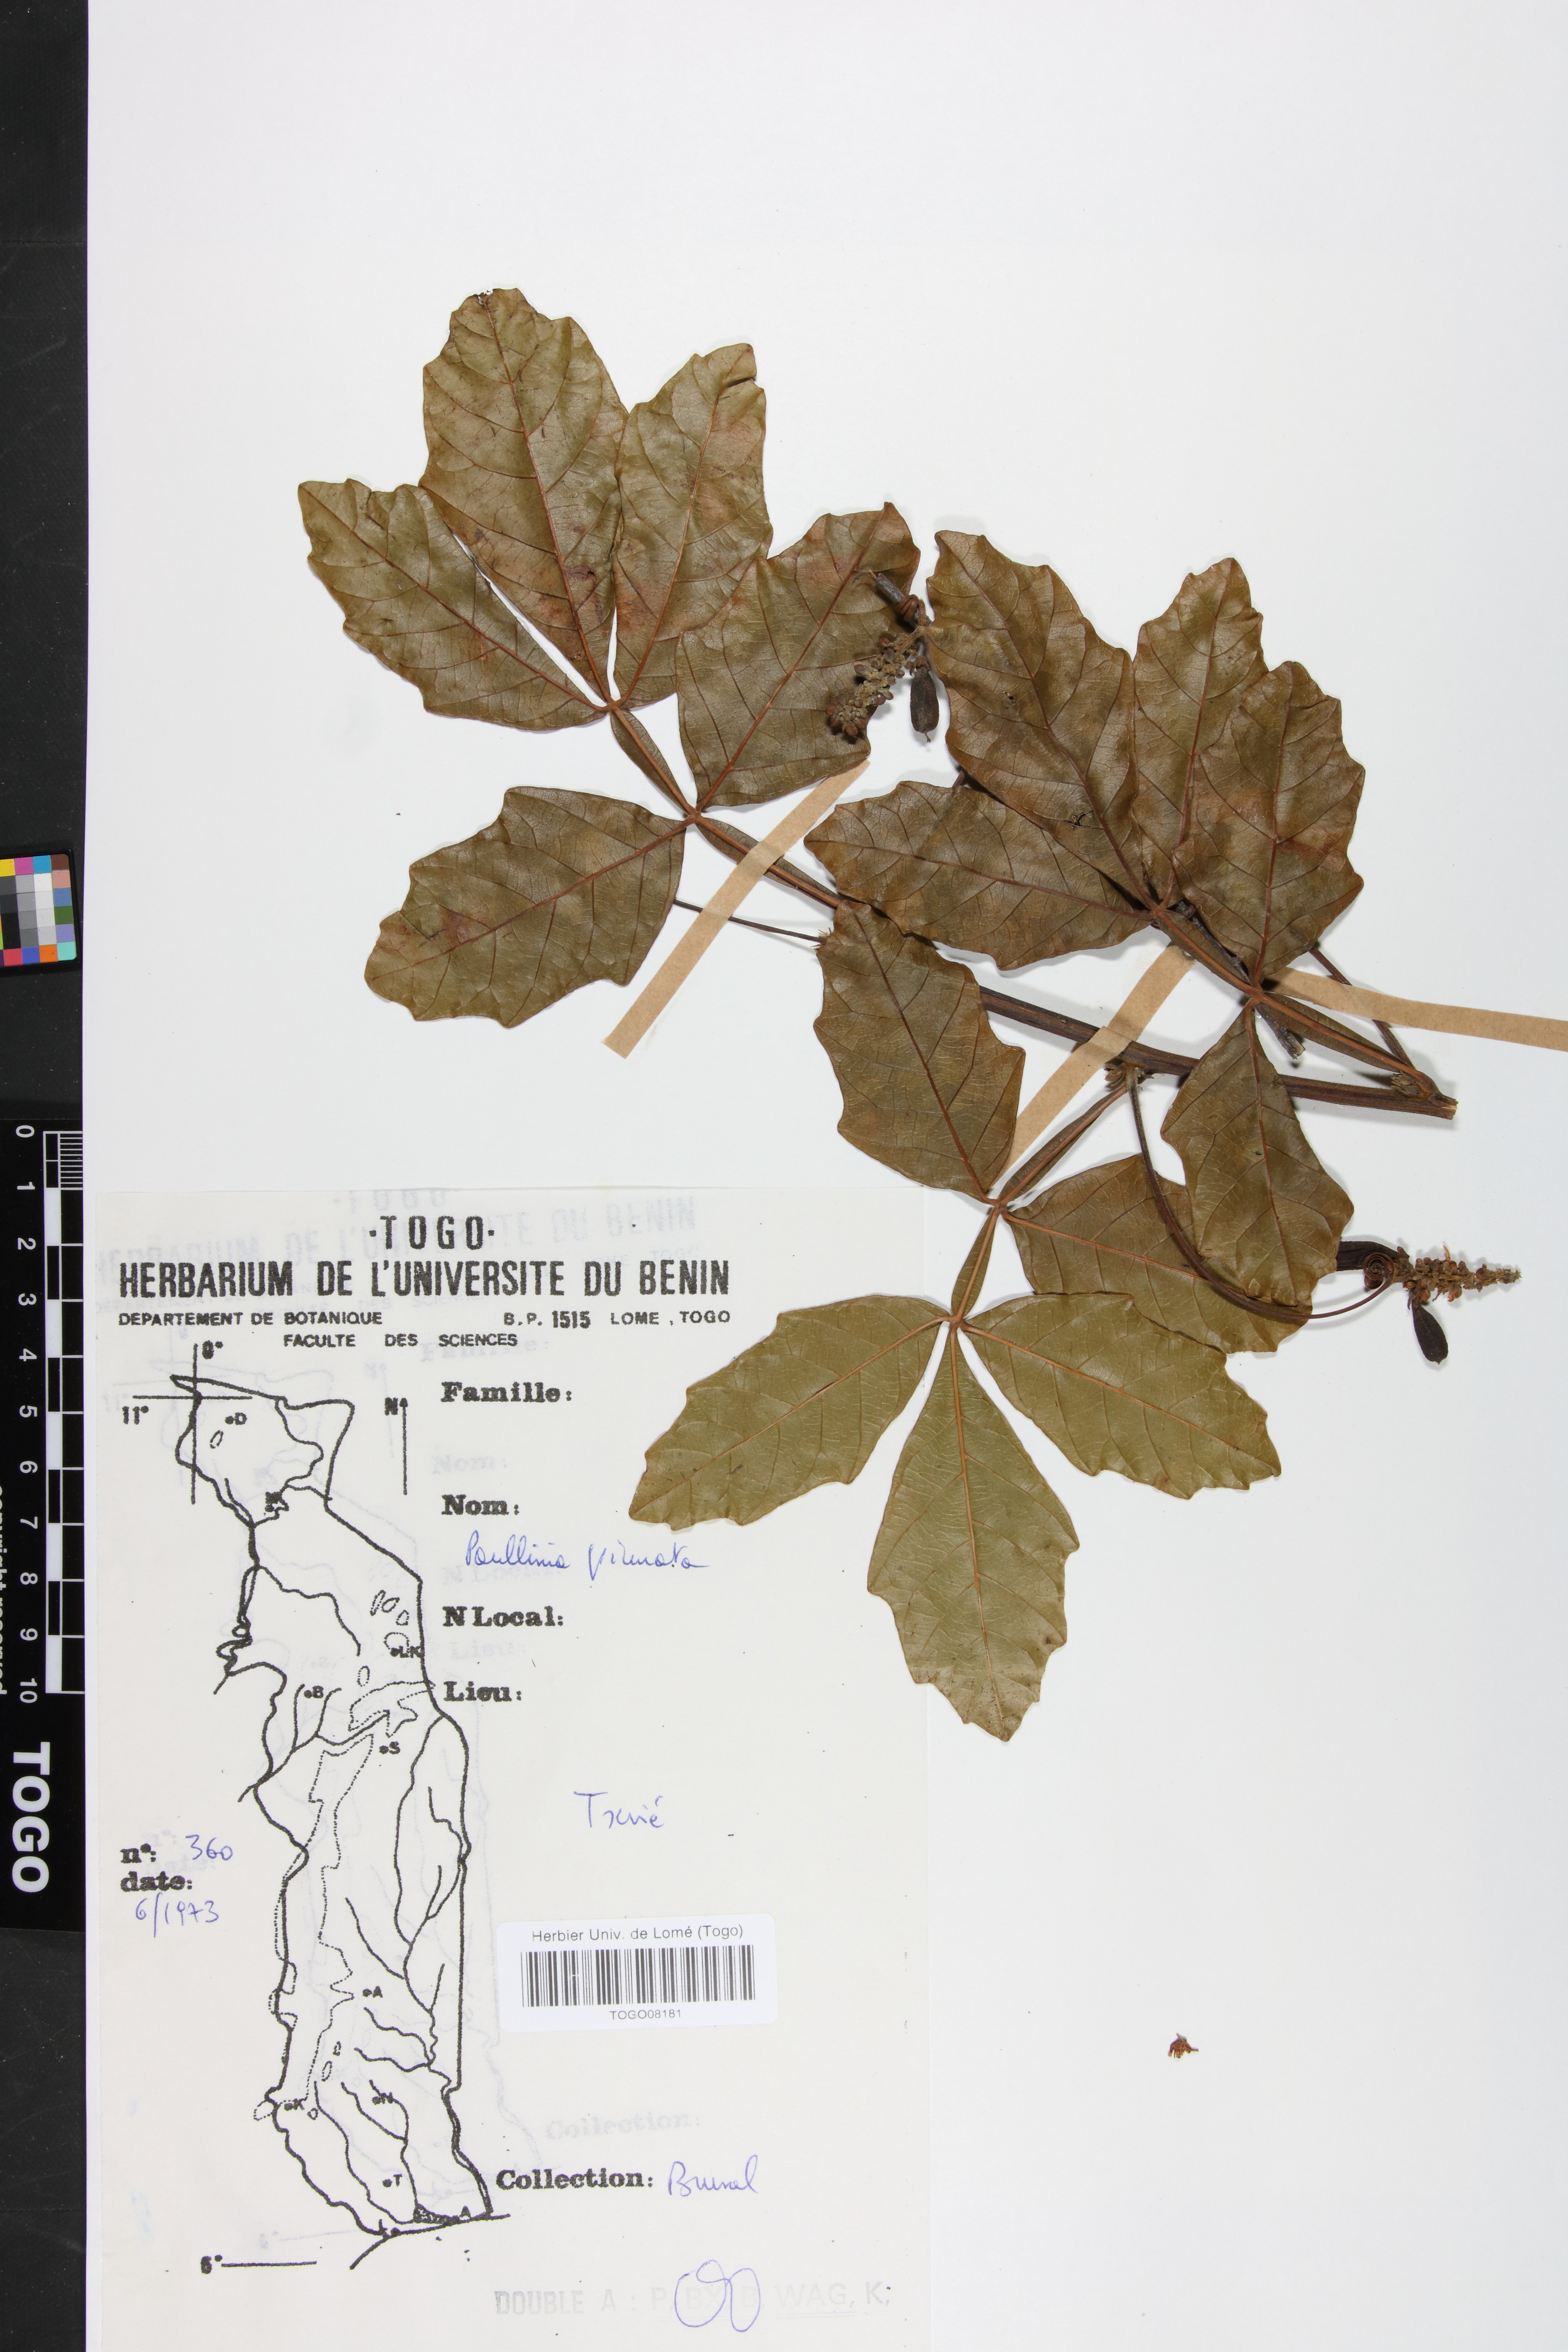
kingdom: Plantae
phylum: Tracheophyta
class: Magnoliopsida
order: Sapindales
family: Sapindaceae
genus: Paullinia
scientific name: Paullinia pinnata
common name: Barbasco
